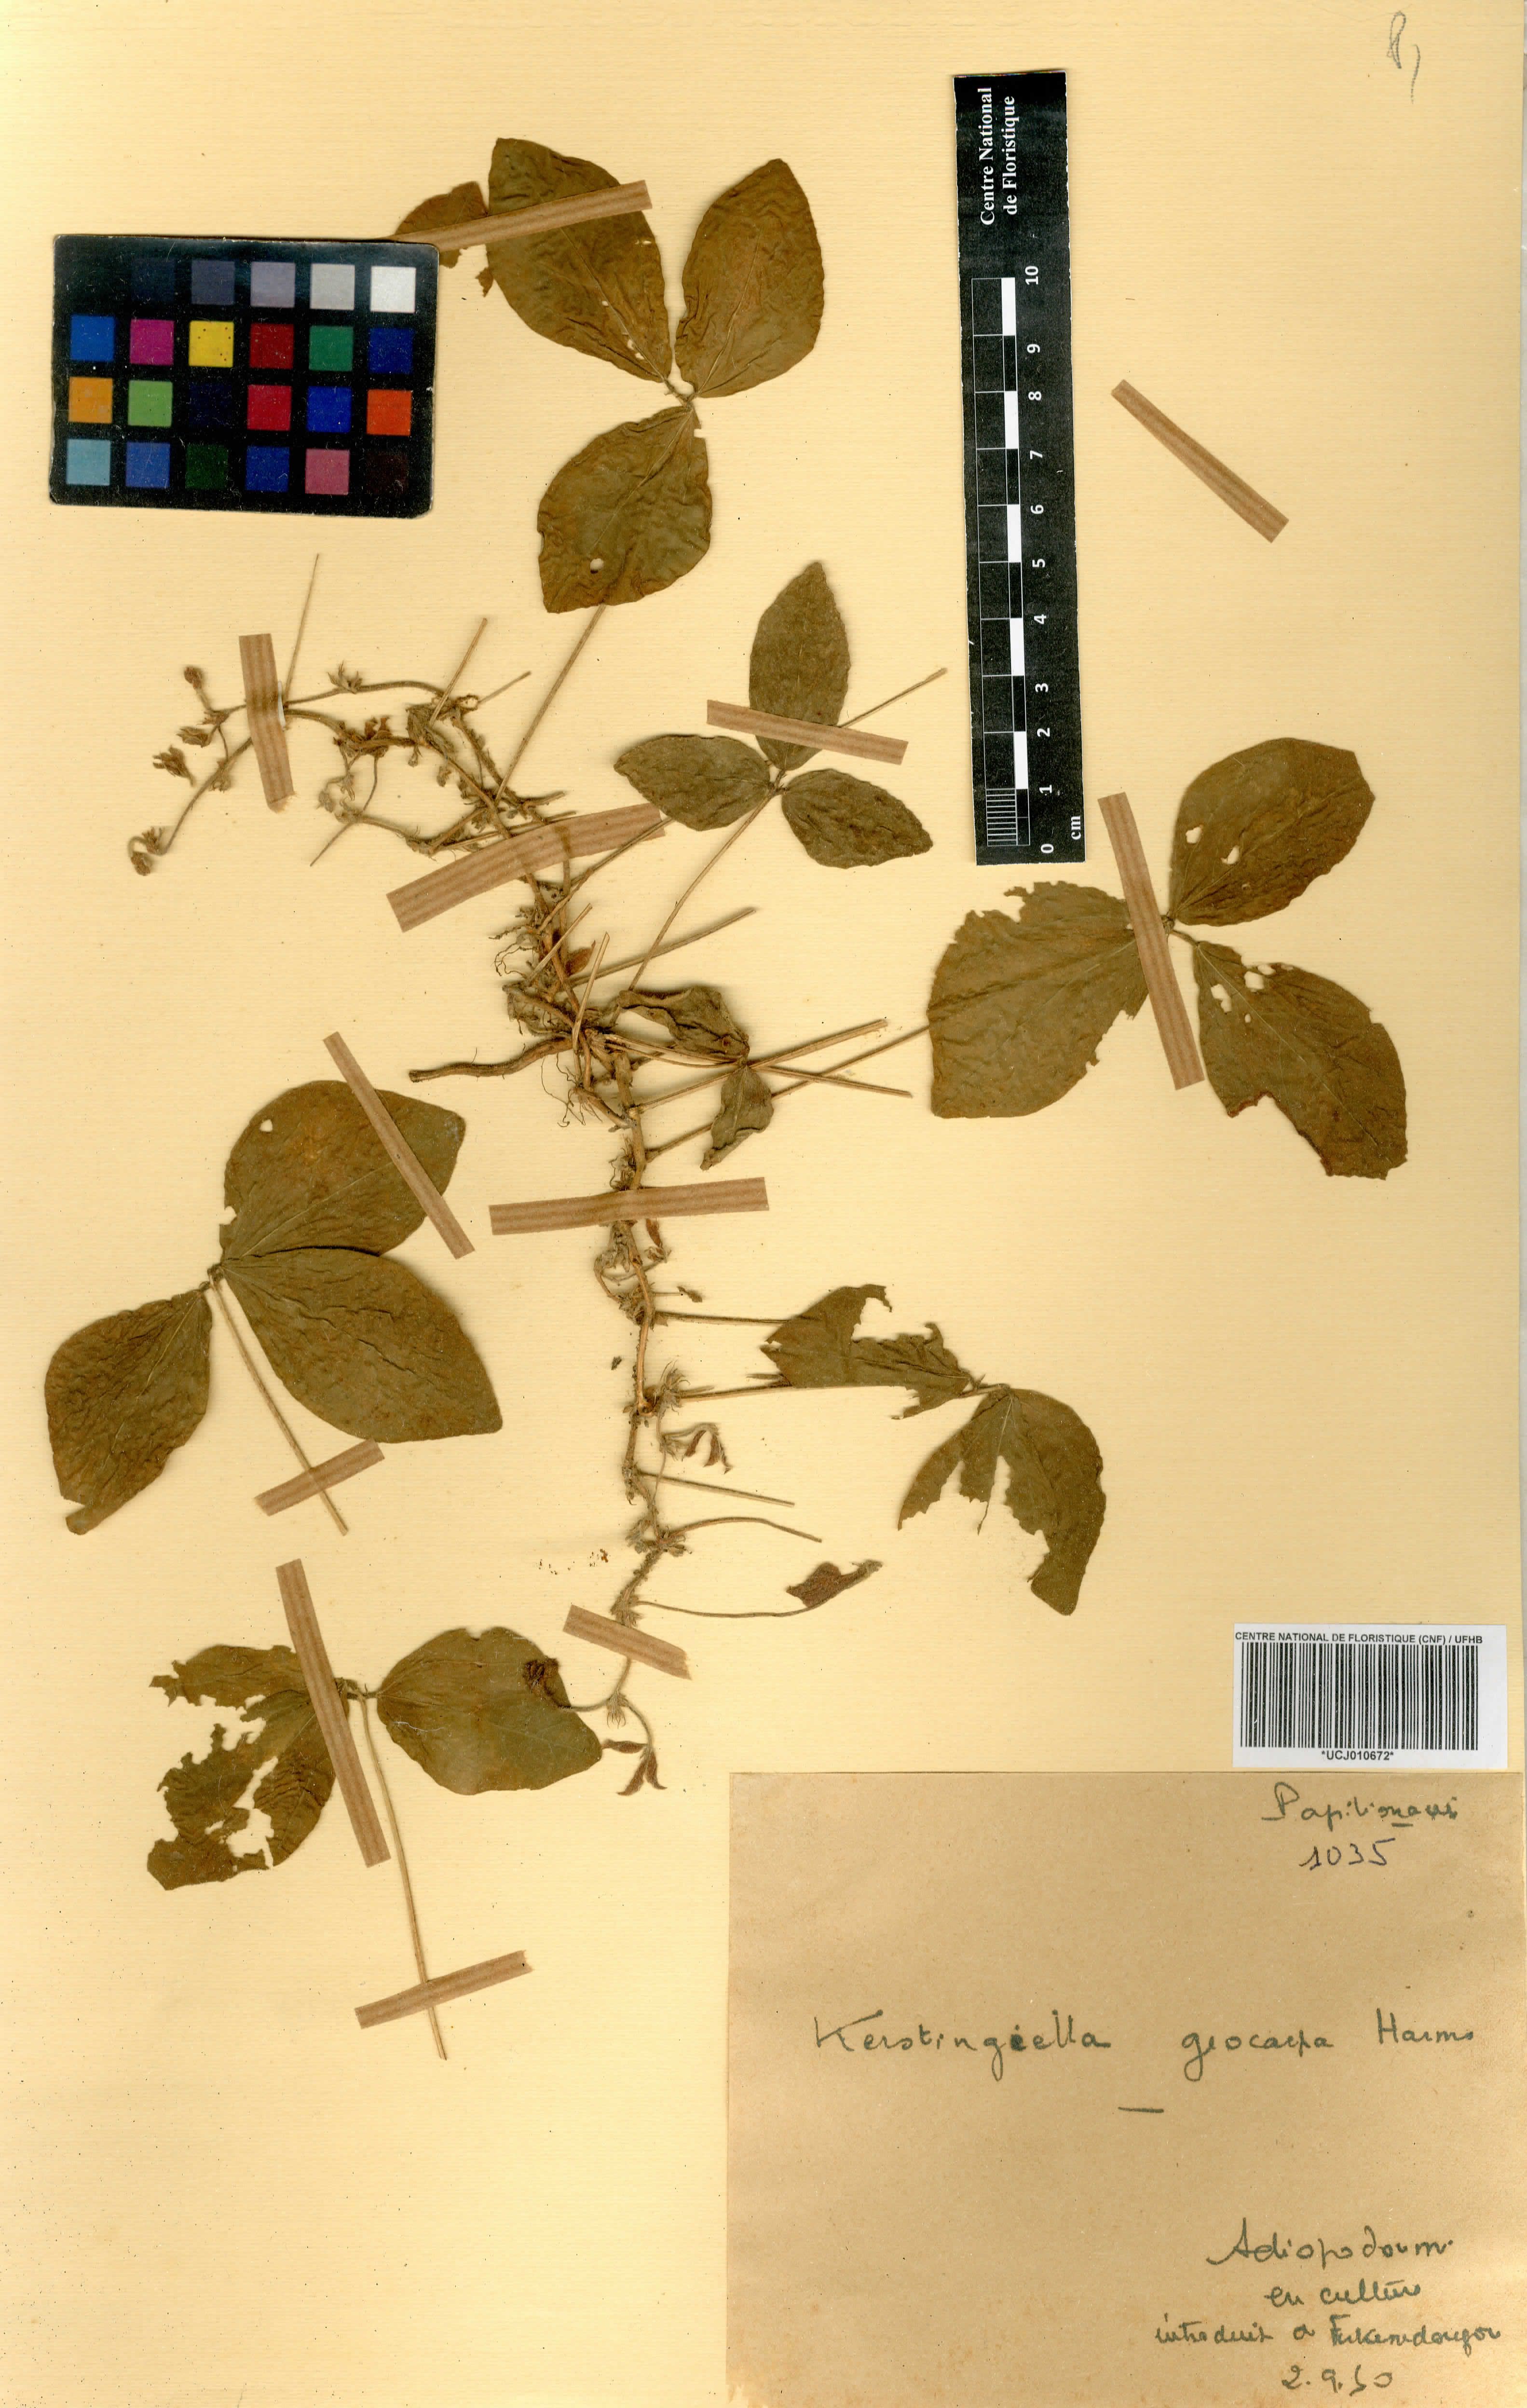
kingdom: Plantae
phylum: Tracheophyta
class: Magnoliopsida
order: Fabales
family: Fabaceae
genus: Macrotyloma
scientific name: Macrotyloma geocarpum
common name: Ground-bean
